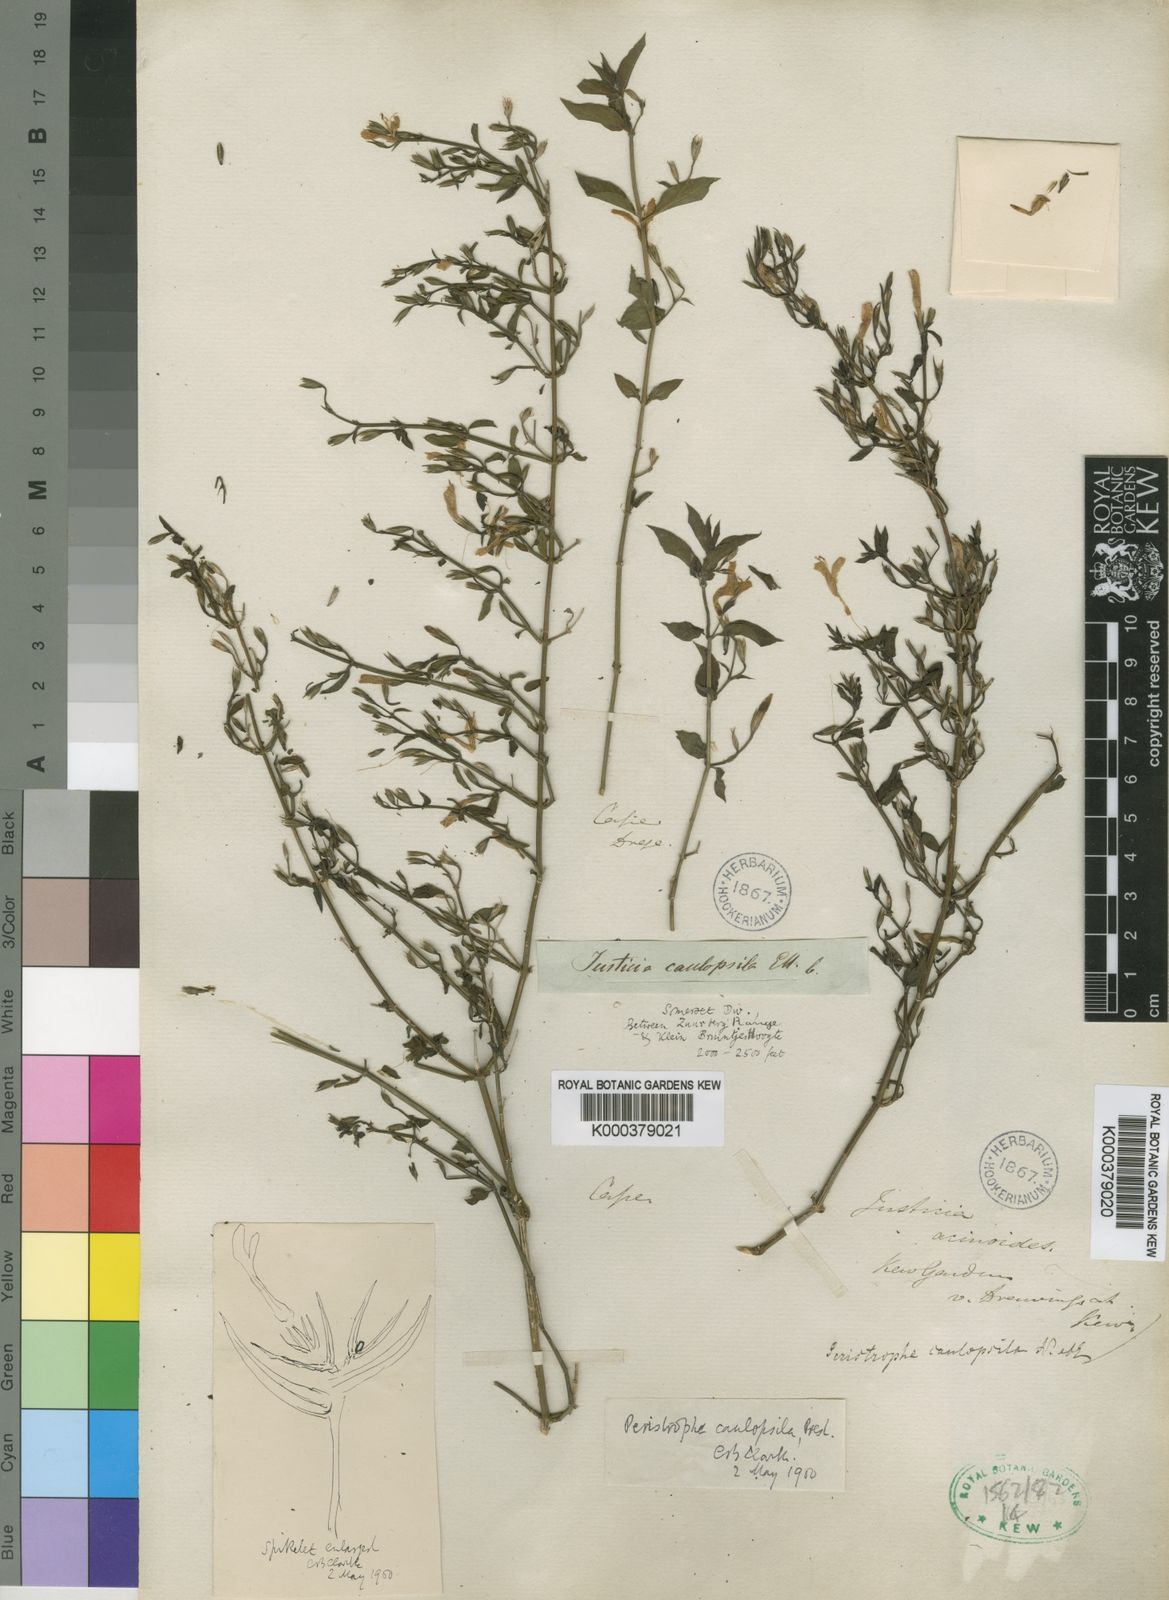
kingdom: Plantae
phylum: Tracheophyta
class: Magnoliopsida
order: Lamiales
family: Acanthaceae
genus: Dicliptera
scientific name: Dicliptera cernua
